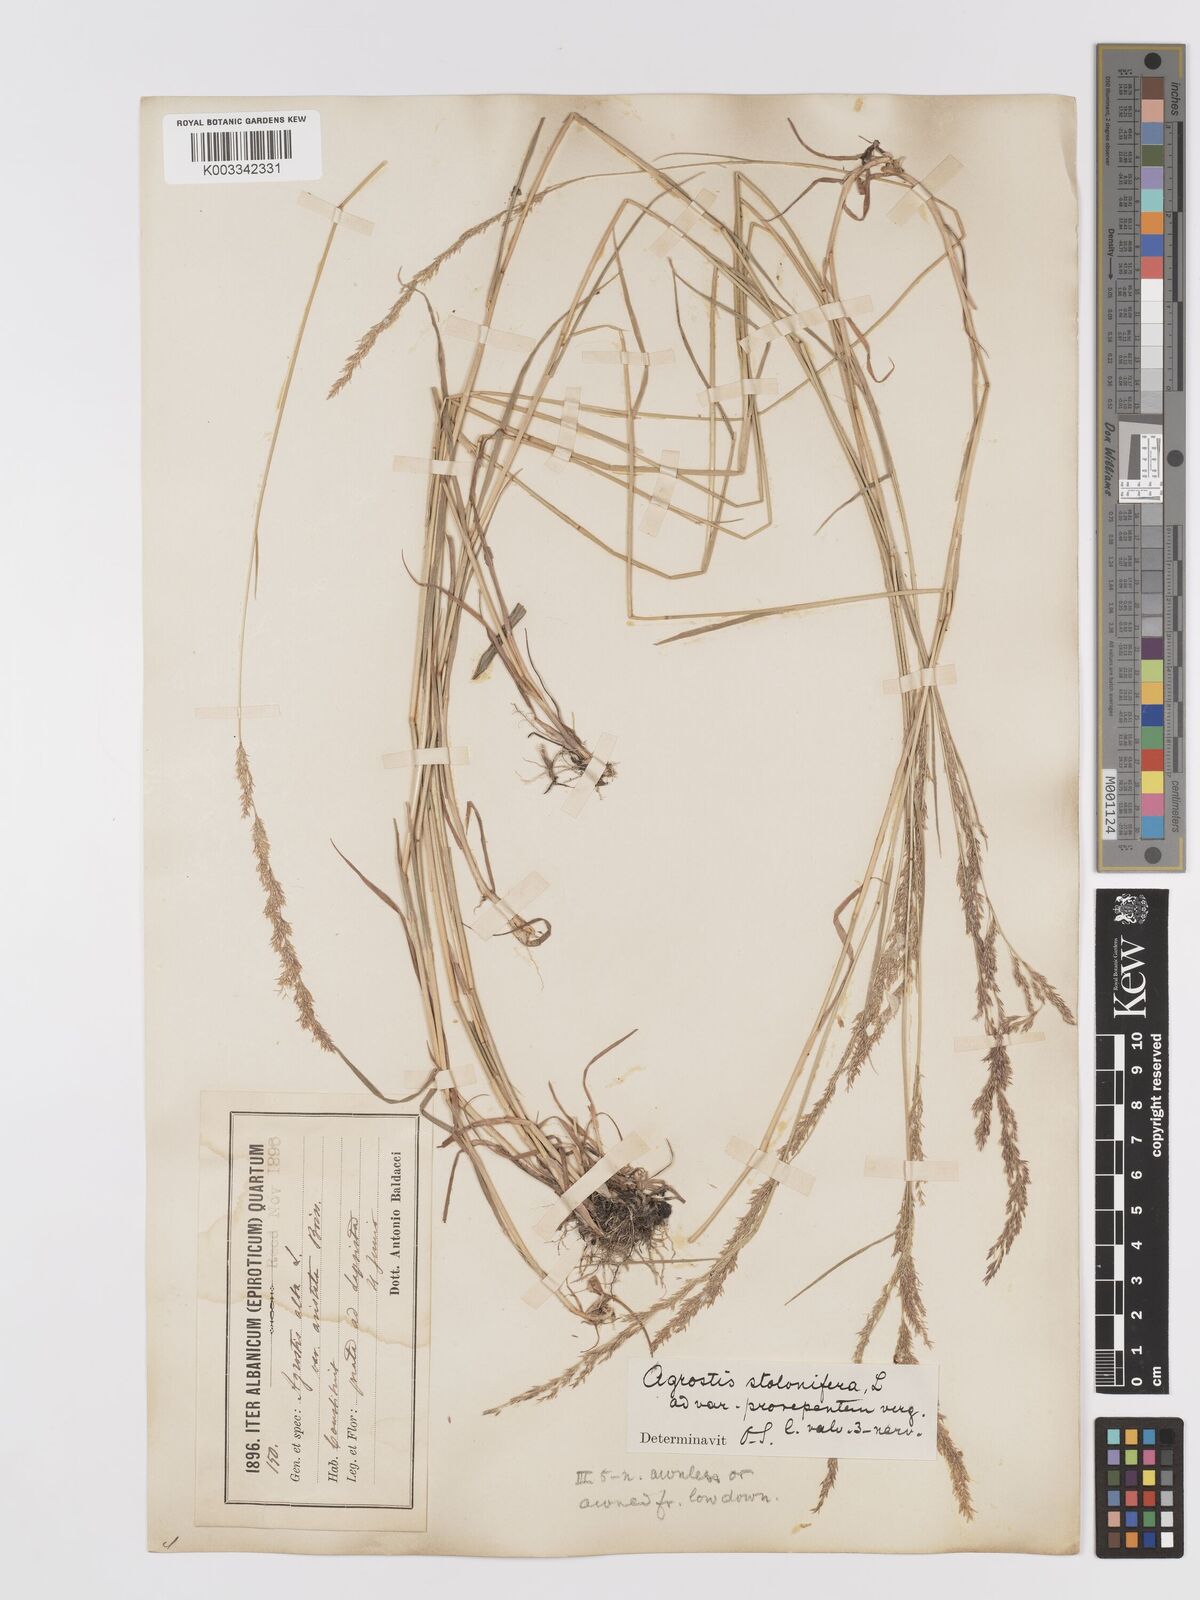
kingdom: Plantae
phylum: Tracheophyta
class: Liliopsida
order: Poales
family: Poaceae
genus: Agrostis
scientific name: Agrostis gigantea
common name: Black bent
